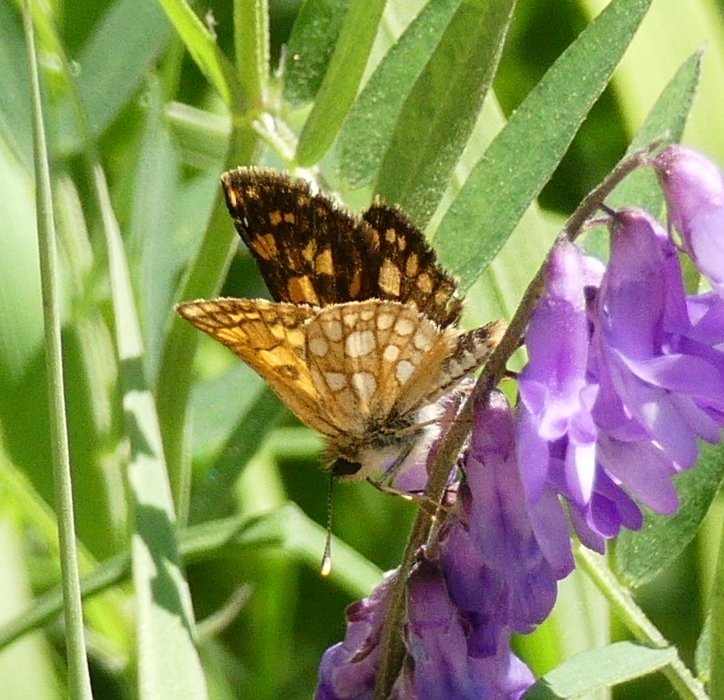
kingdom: Animalia
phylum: Arthropoda
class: Insecta
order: Lepidoptera
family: Hesperiidae
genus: Carterocephalus
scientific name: Carterocephalus palaemon
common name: Chequered Skipper
